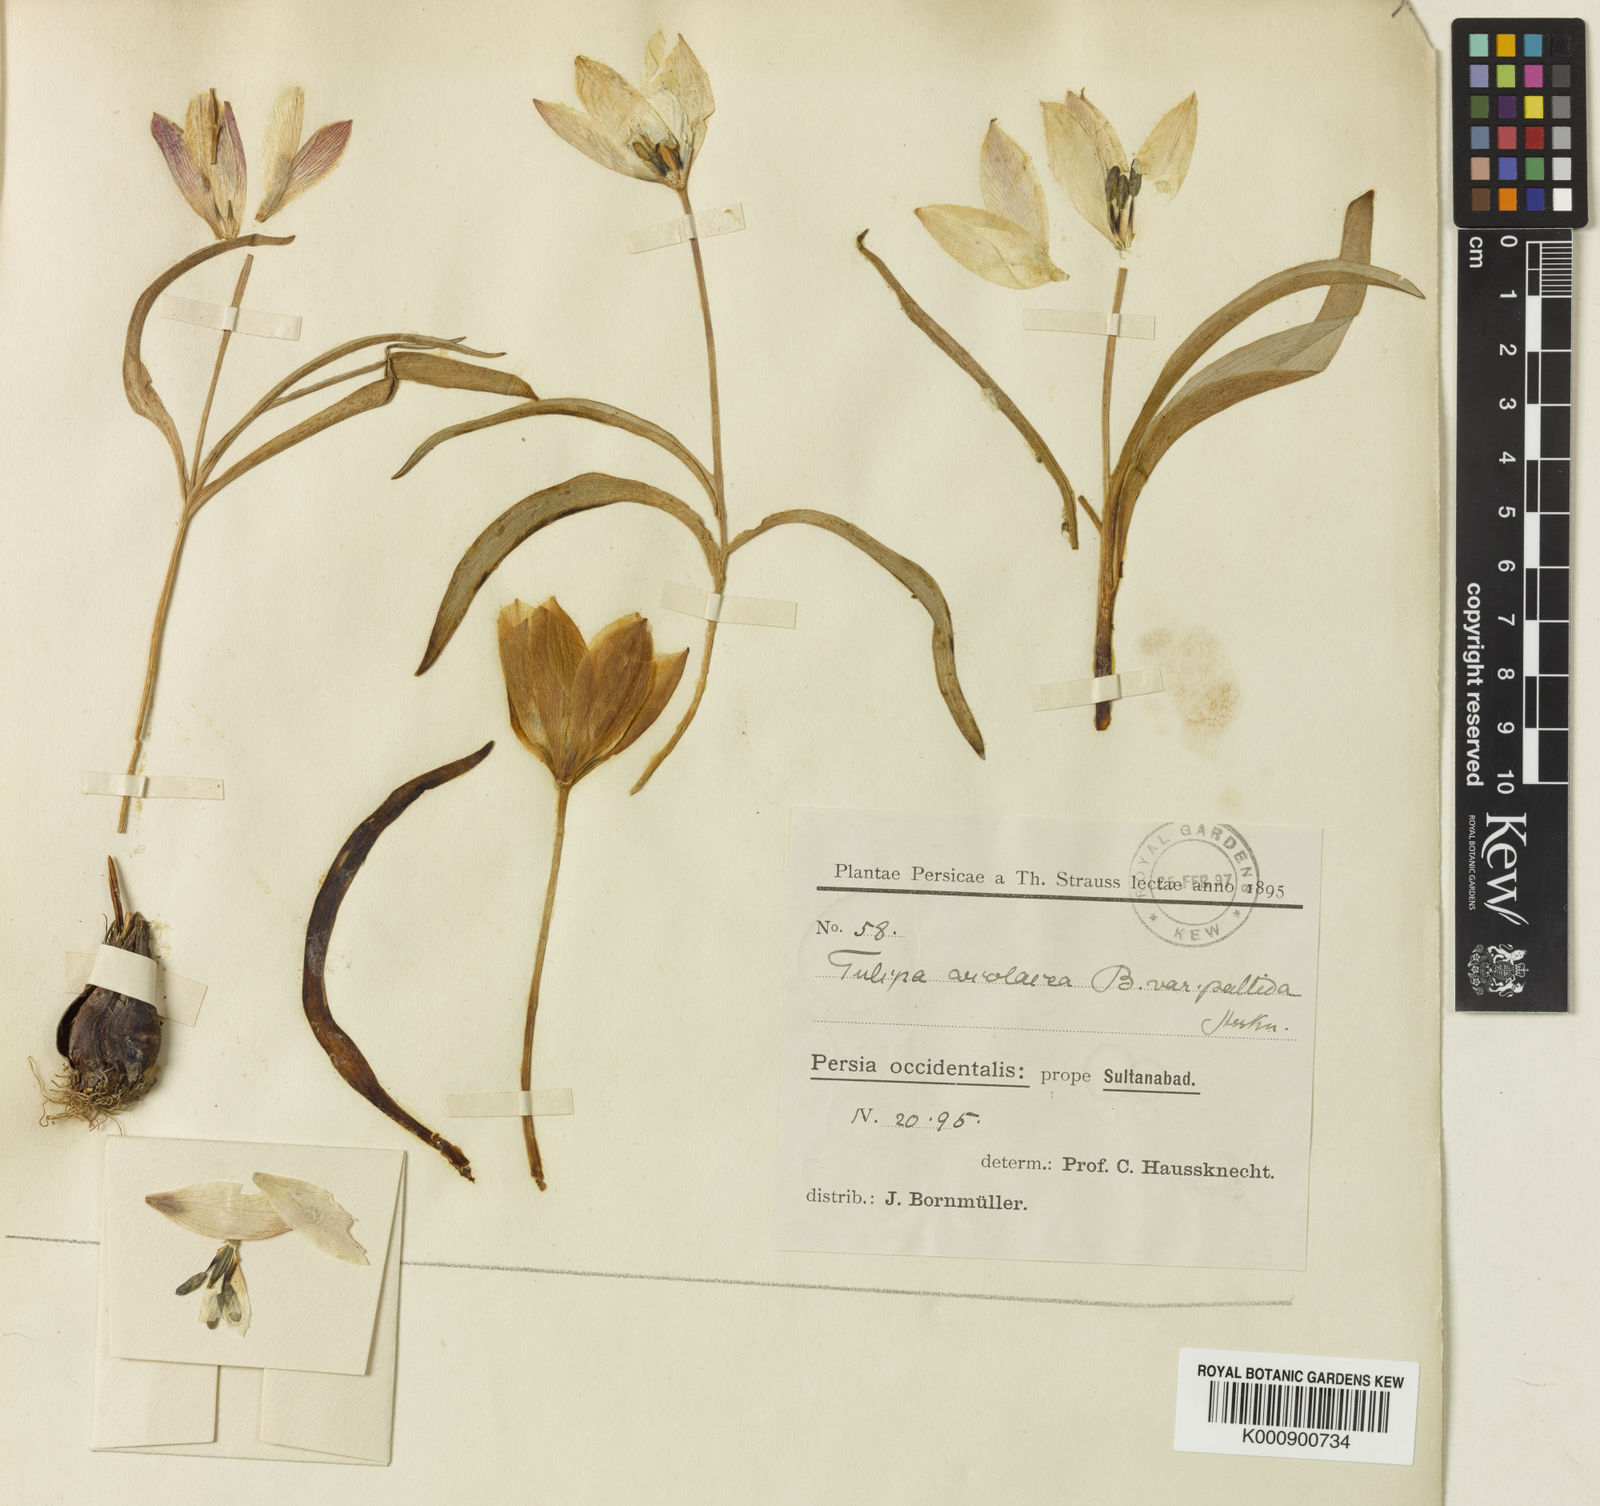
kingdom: Plantae
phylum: Tracheophyta
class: Liliopsida
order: Liliales
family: Liliaceae
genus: Tulipa
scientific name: Tulipa humilis
